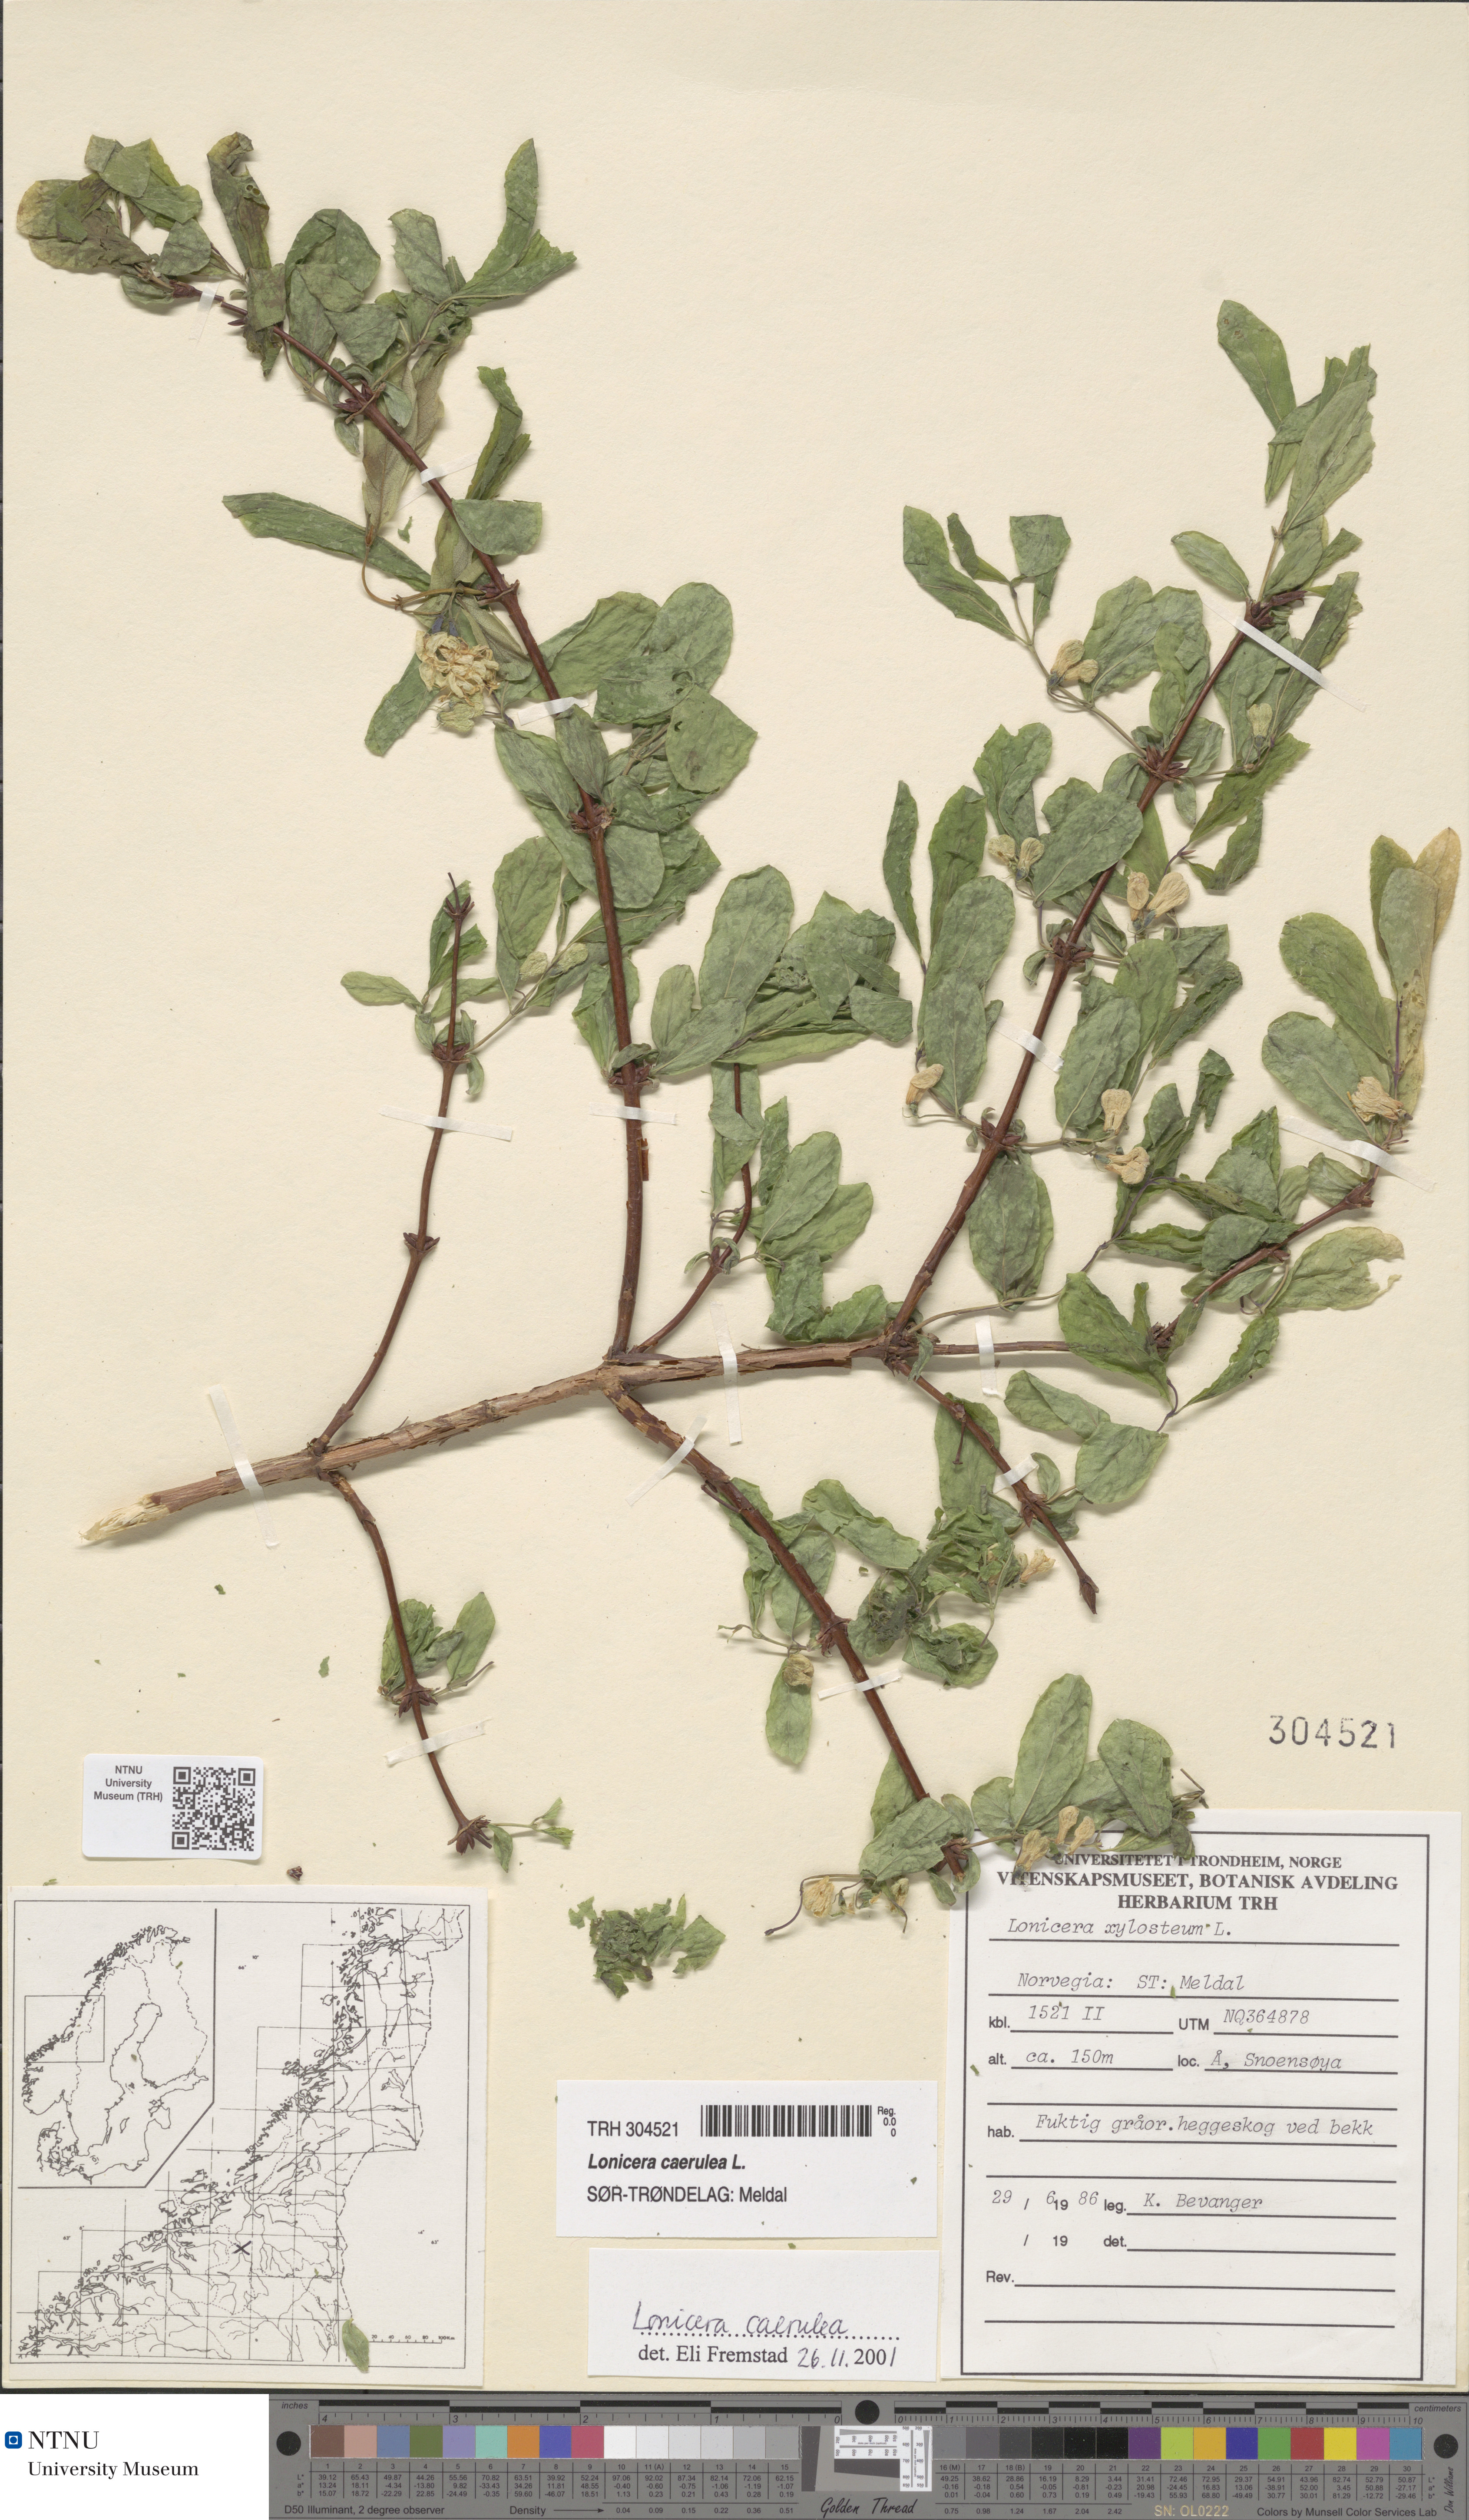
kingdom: Plantae
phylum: Tracheophyta
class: Magnoliopsida
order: Dipsacales
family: Caprifoliaceae
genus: Lonicera
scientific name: Lonicera caerulea
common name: Blue honeysuckle
